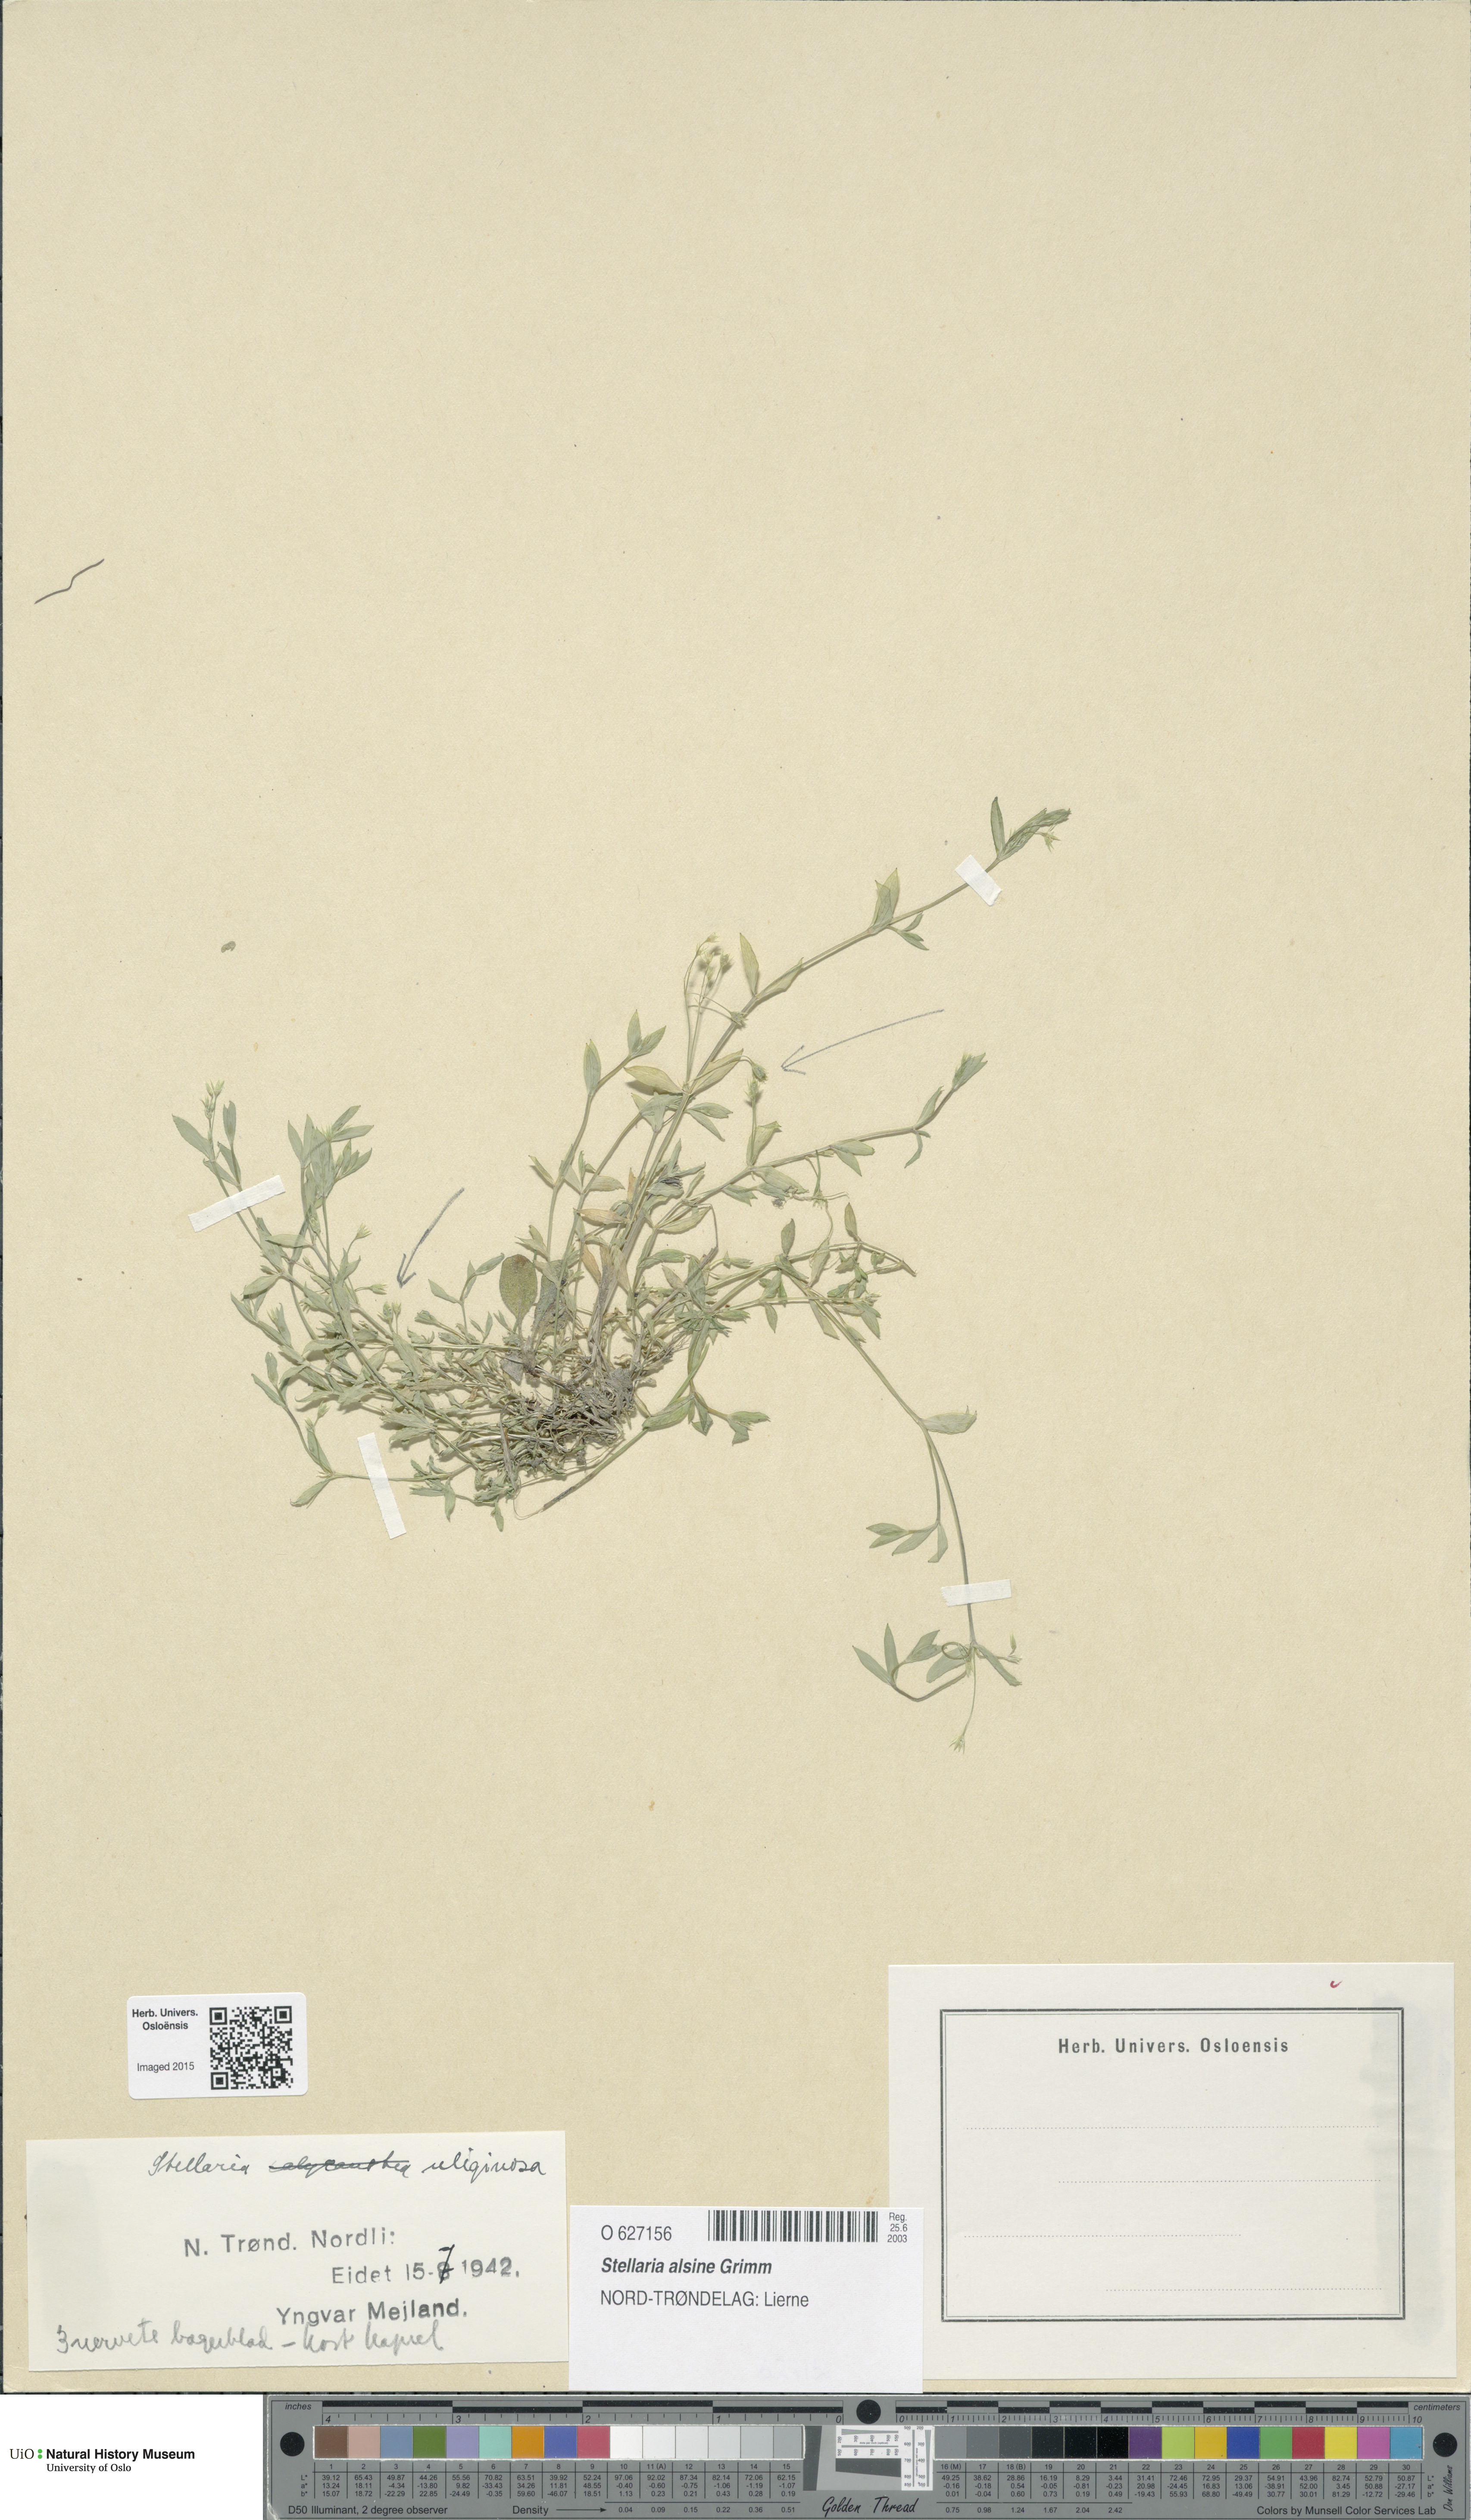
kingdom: Plantae
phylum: Tracheophyta
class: Magnoliopsida
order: Caryophyllales
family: Caryophyllaceae
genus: Stellaria
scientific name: Stellaria alsine
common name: Bog stitchwort
